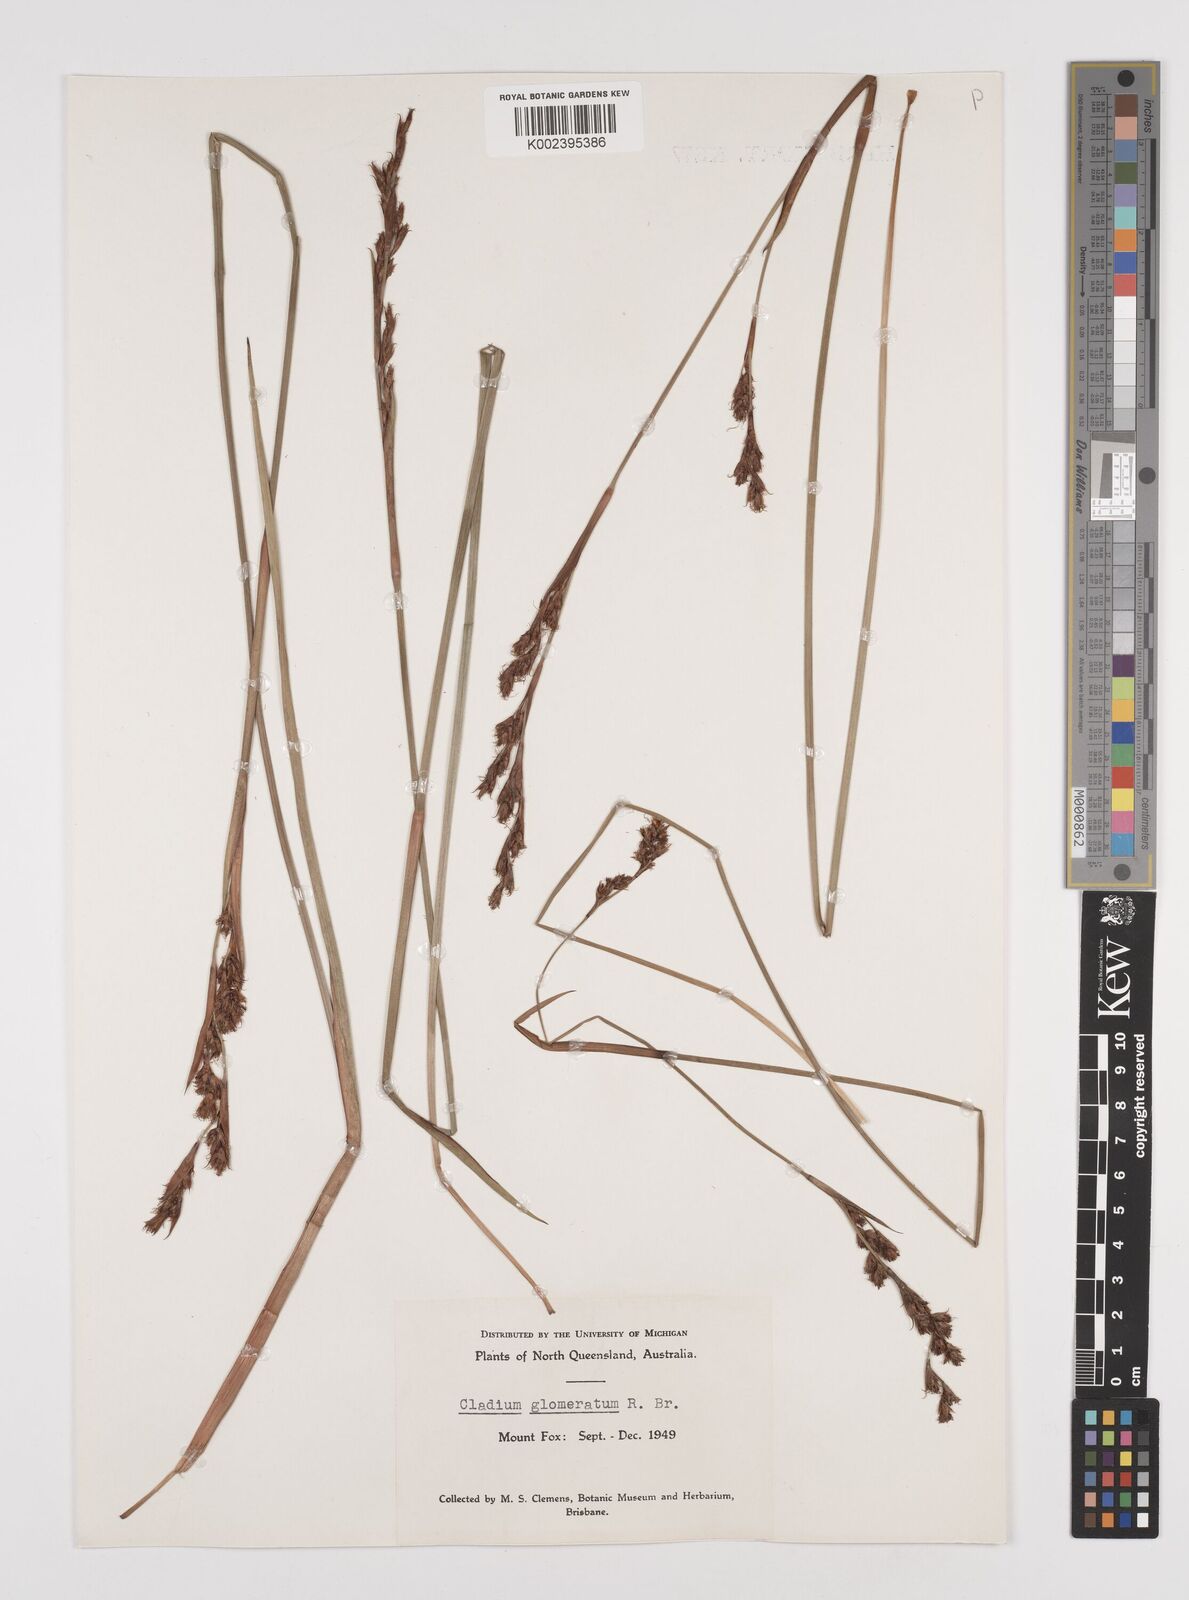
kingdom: Plantae
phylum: Tracheophyta
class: Liliopsida
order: Poales
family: Cyperaceae
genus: Machaerina
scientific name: Machaerina rubiginosa
